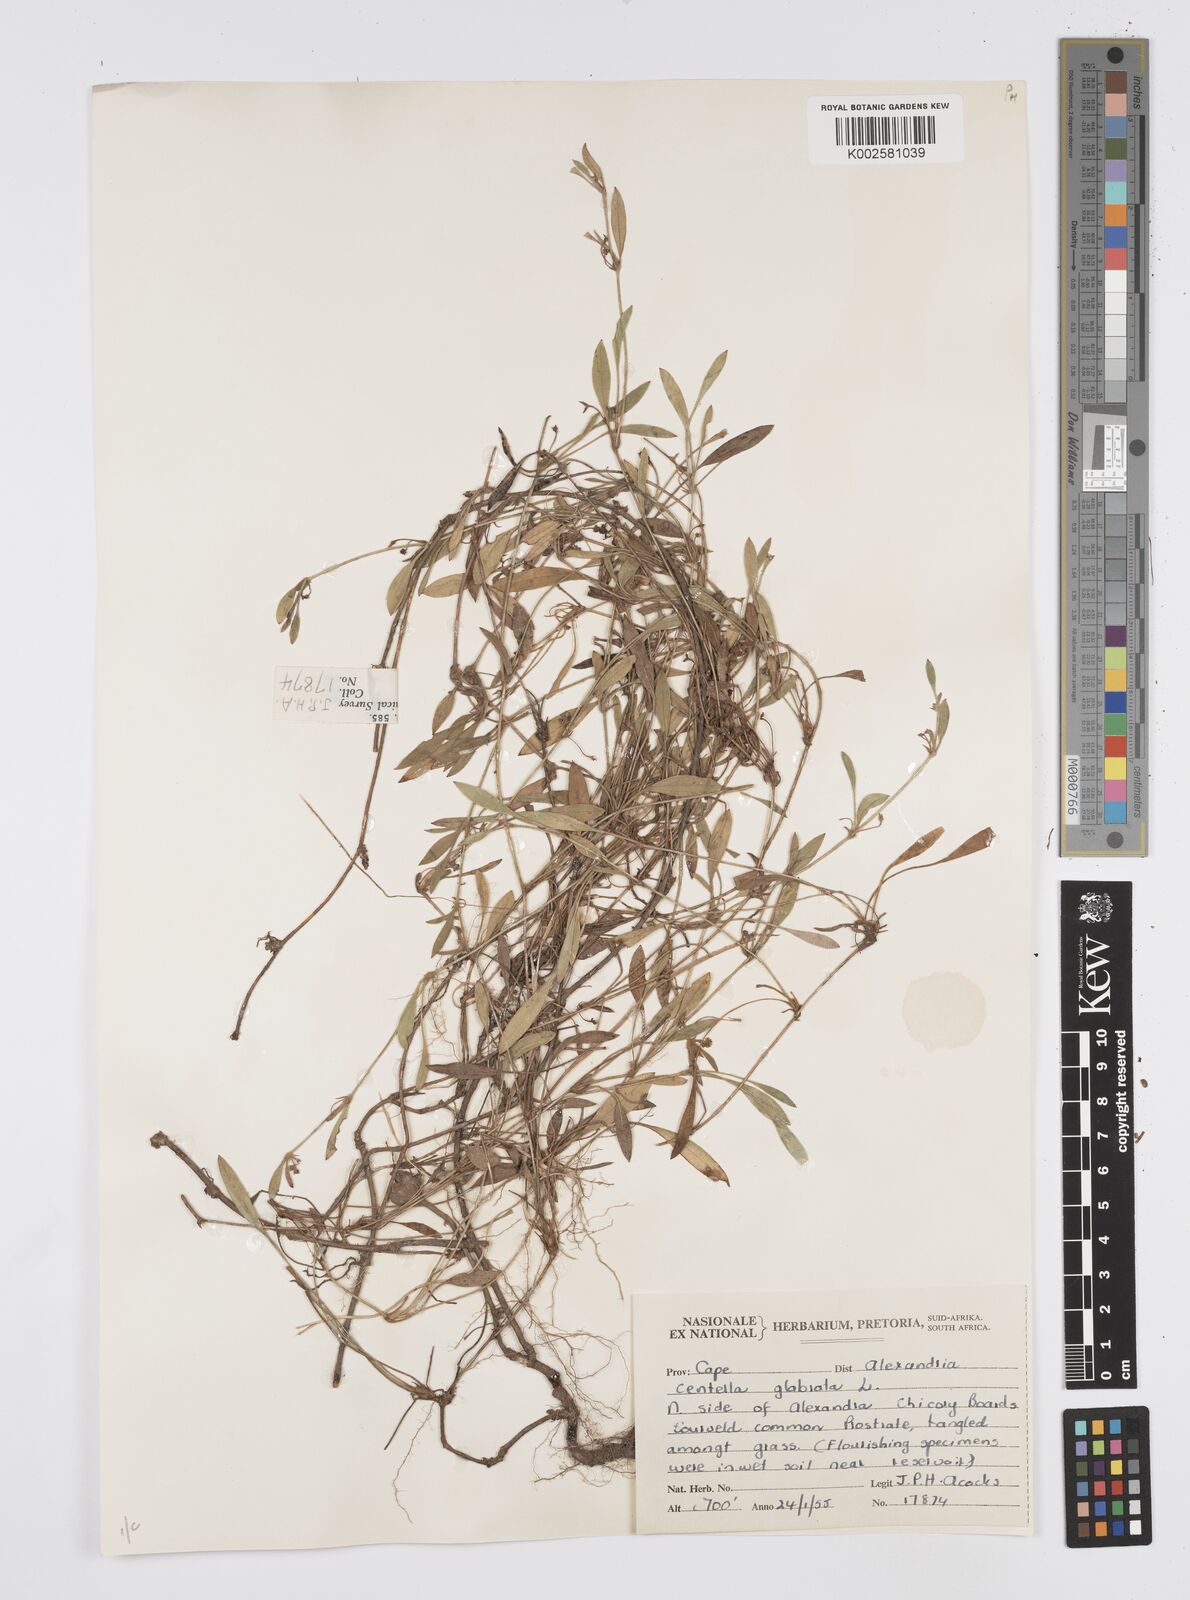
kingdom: Plantae
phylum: Tracheophyta
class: Magnoliopsida
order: Apiales
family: Apiaceae
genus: Centella
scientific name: Centella glabrata
